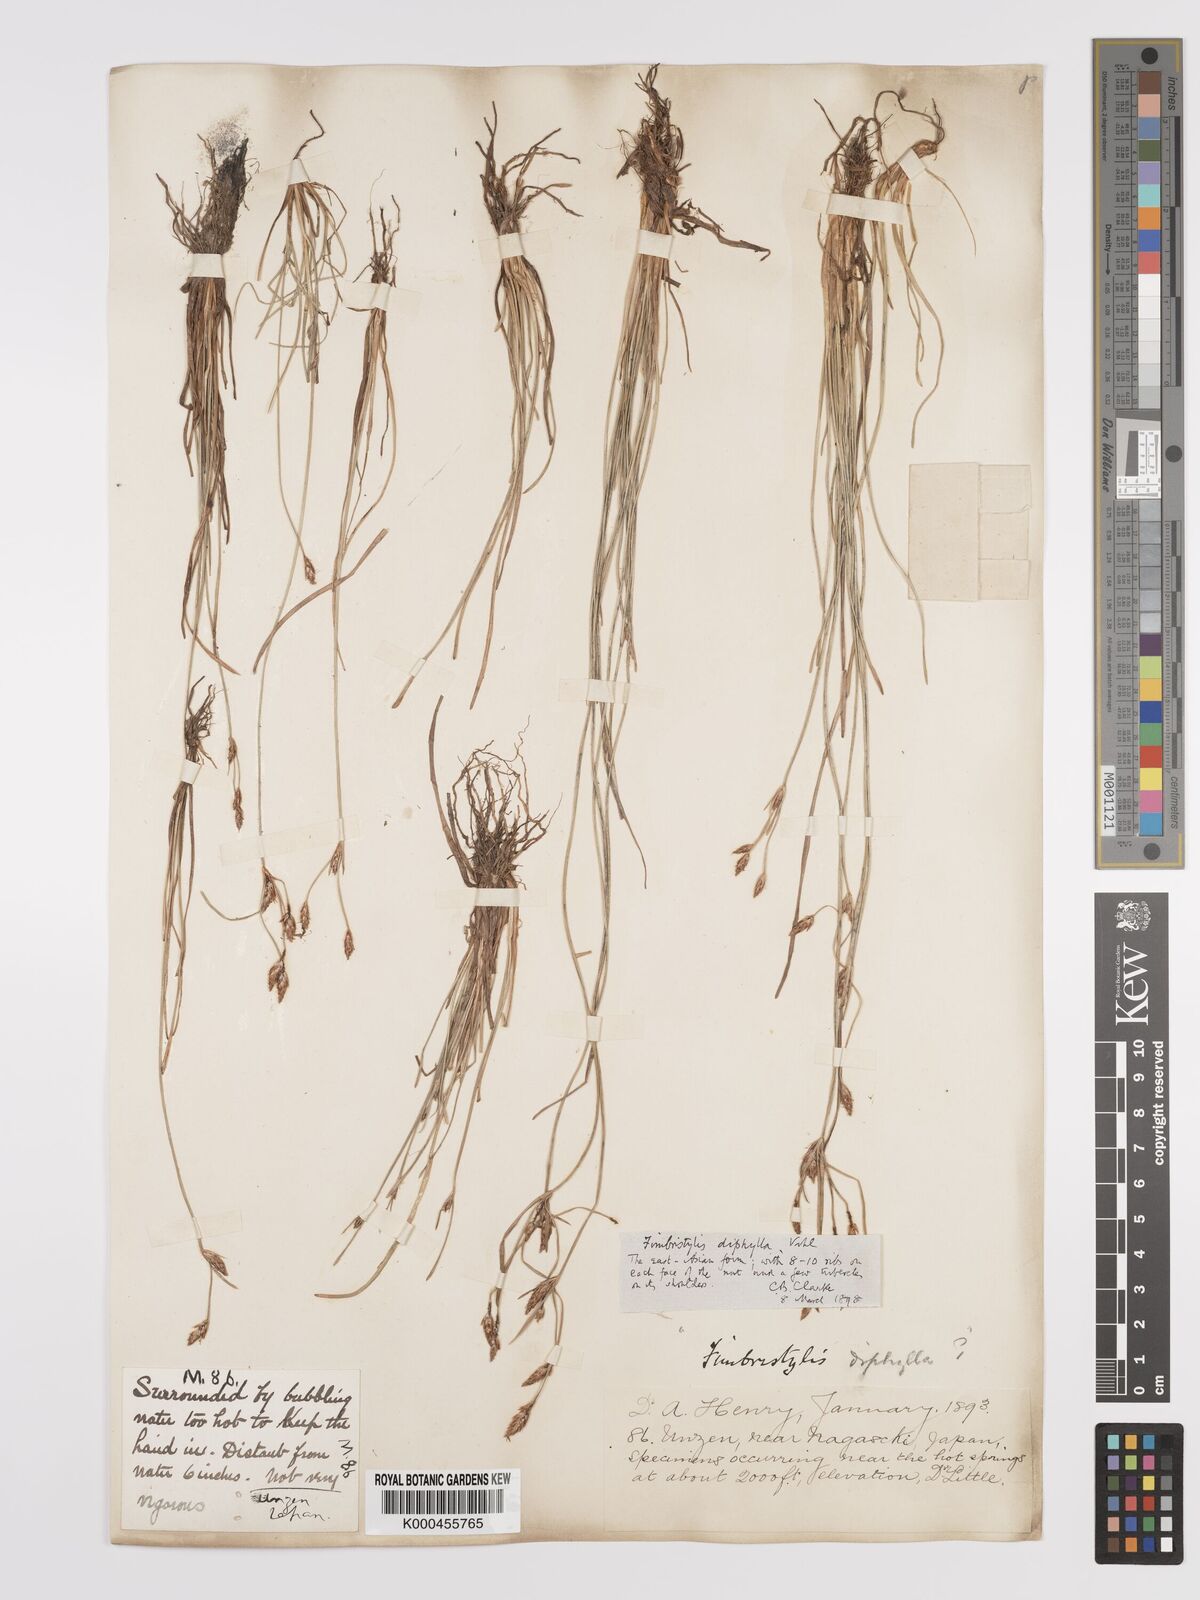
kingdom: Plantae
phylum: Tracheophyta
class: Liliopsida
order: Poales
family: Cyperaceae
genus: Fimbristylis
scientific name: Fimbristylis dichotoma
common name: Forked fimbry
